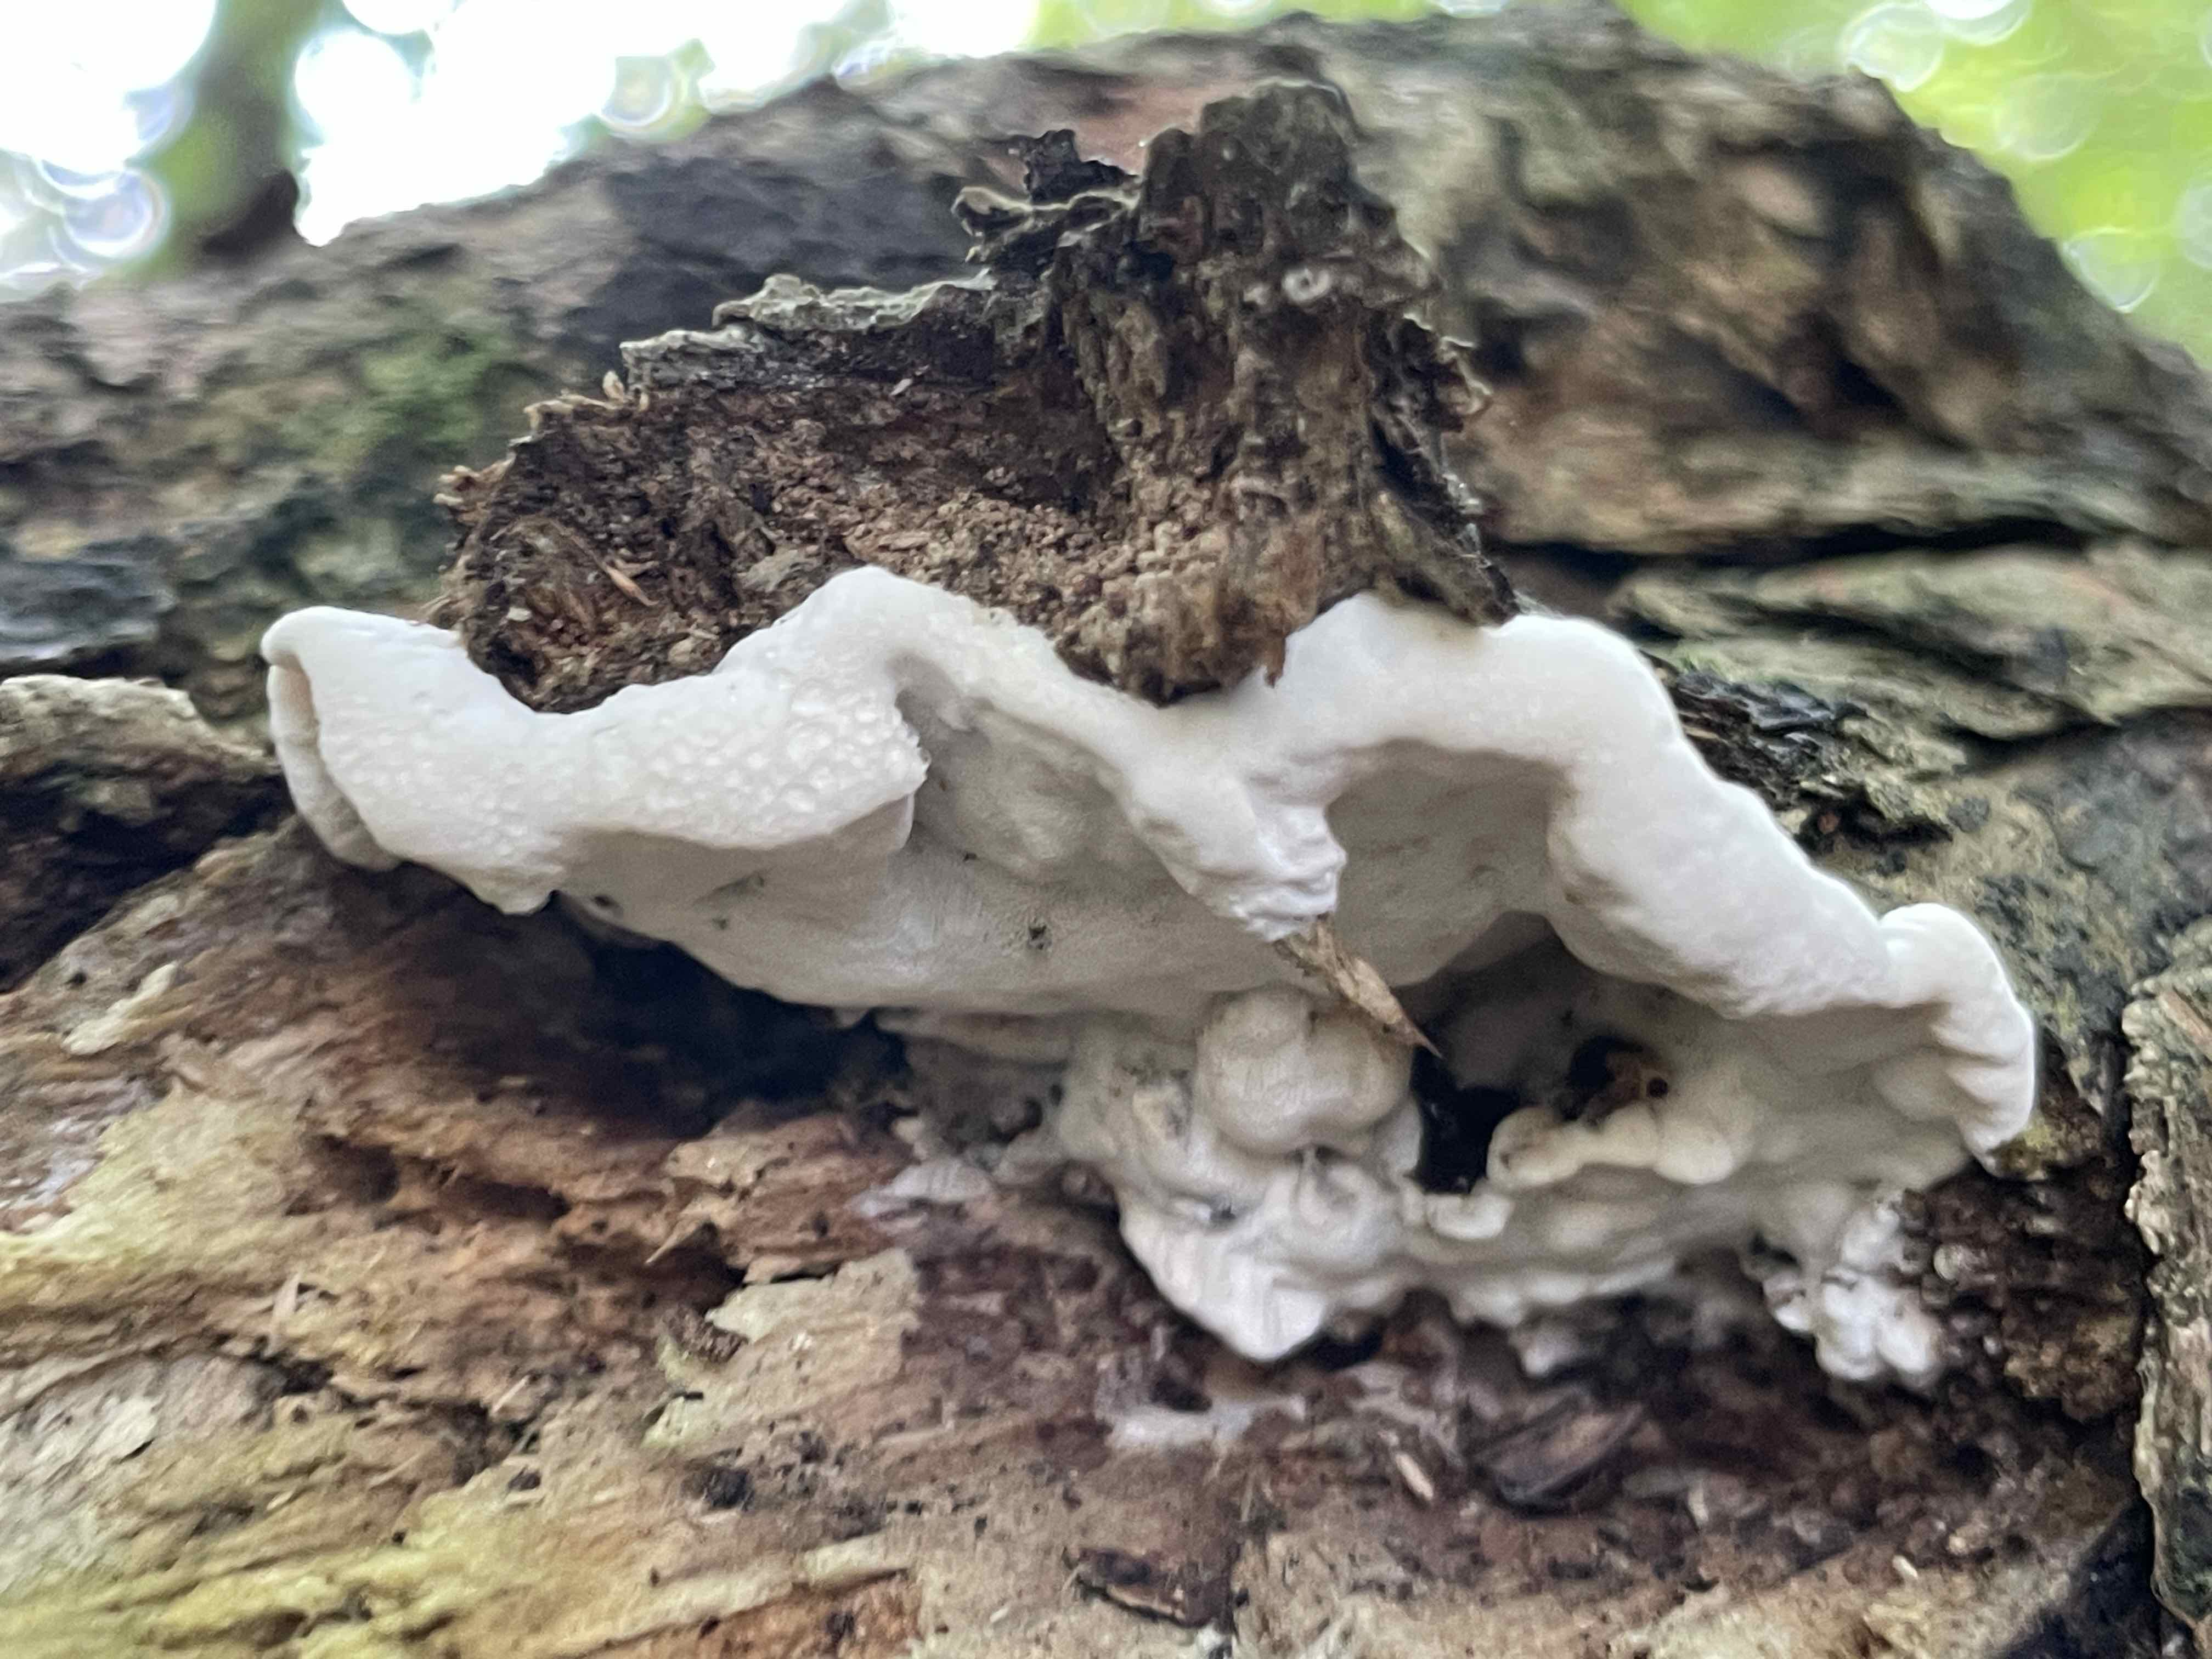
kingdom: Fungi
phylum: Basidiomycota
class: Agaricomycetes
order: Polyporales
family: Incrustoporiaceae
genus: Skeletocutis
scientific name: Skeletocutis nemoralis
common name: stor krystalporesvamp
